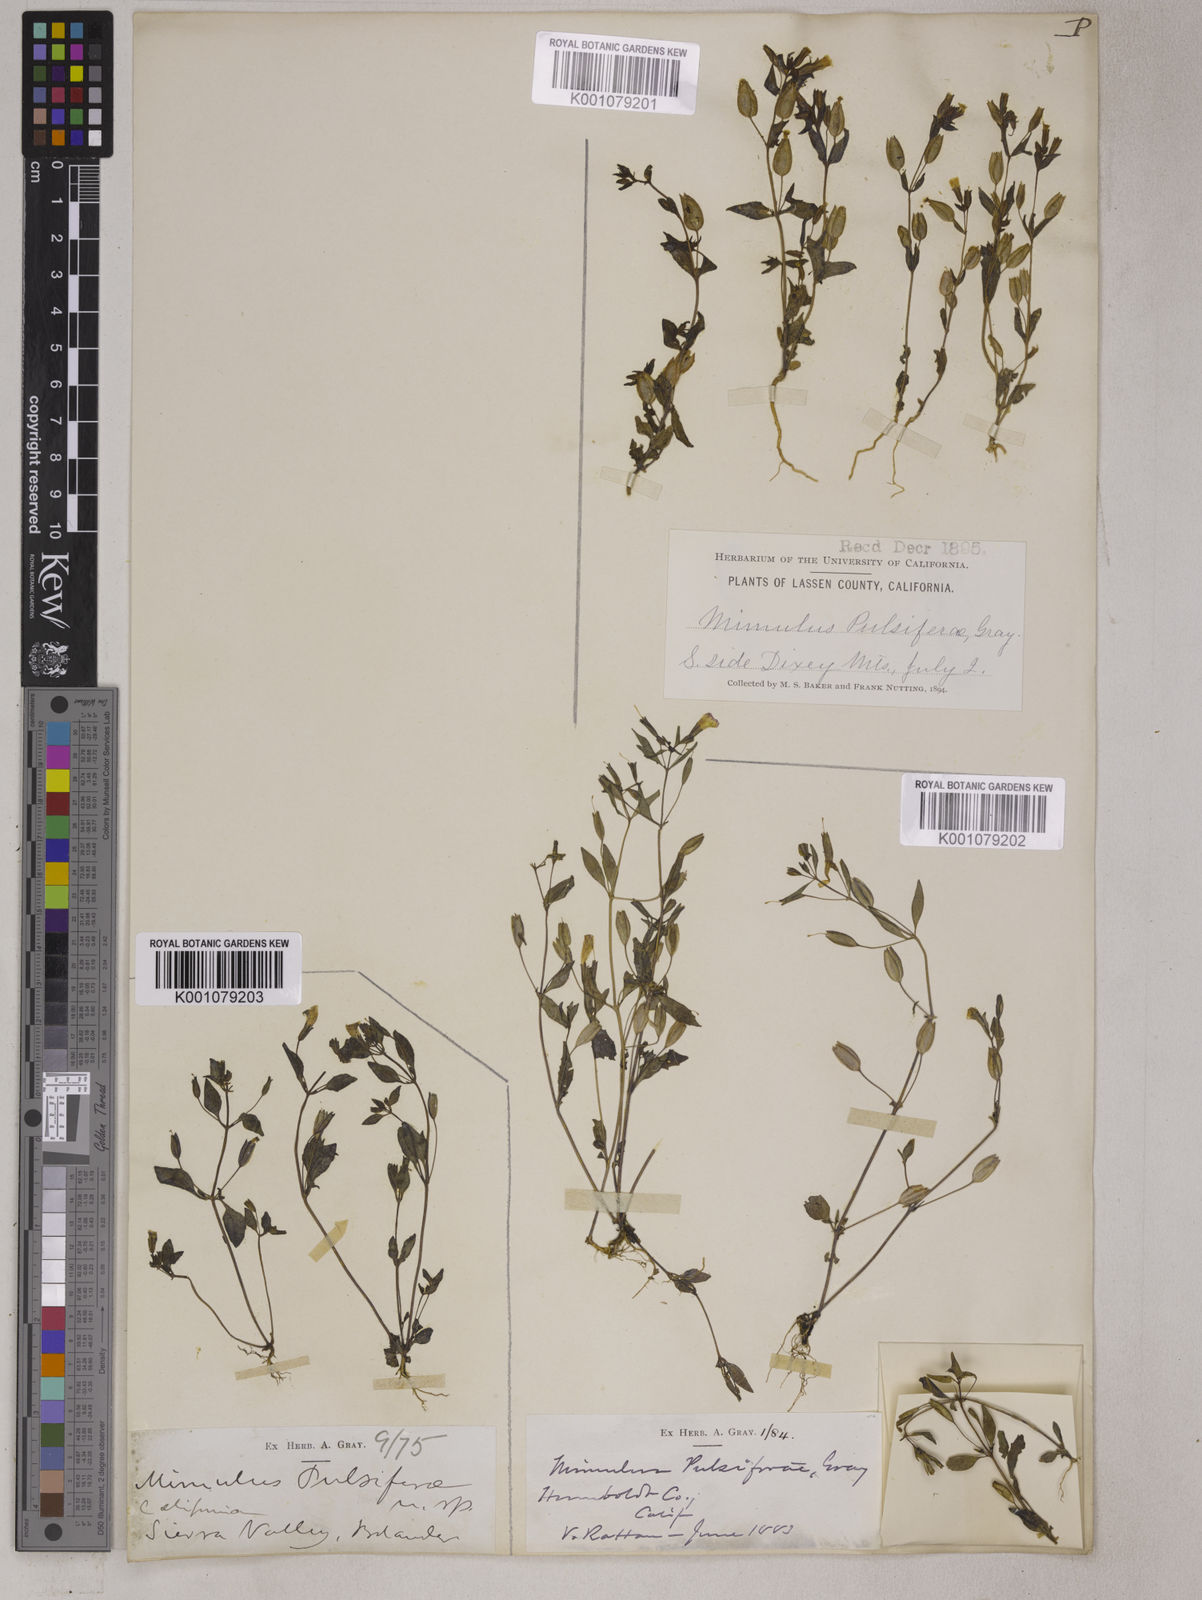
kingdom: Plantae
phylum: Tracheophyta
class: Magnoliopsida
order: Lamiales
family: Phrymaceae
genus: Erythranthe
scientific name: Erythranthe pulsiferae
